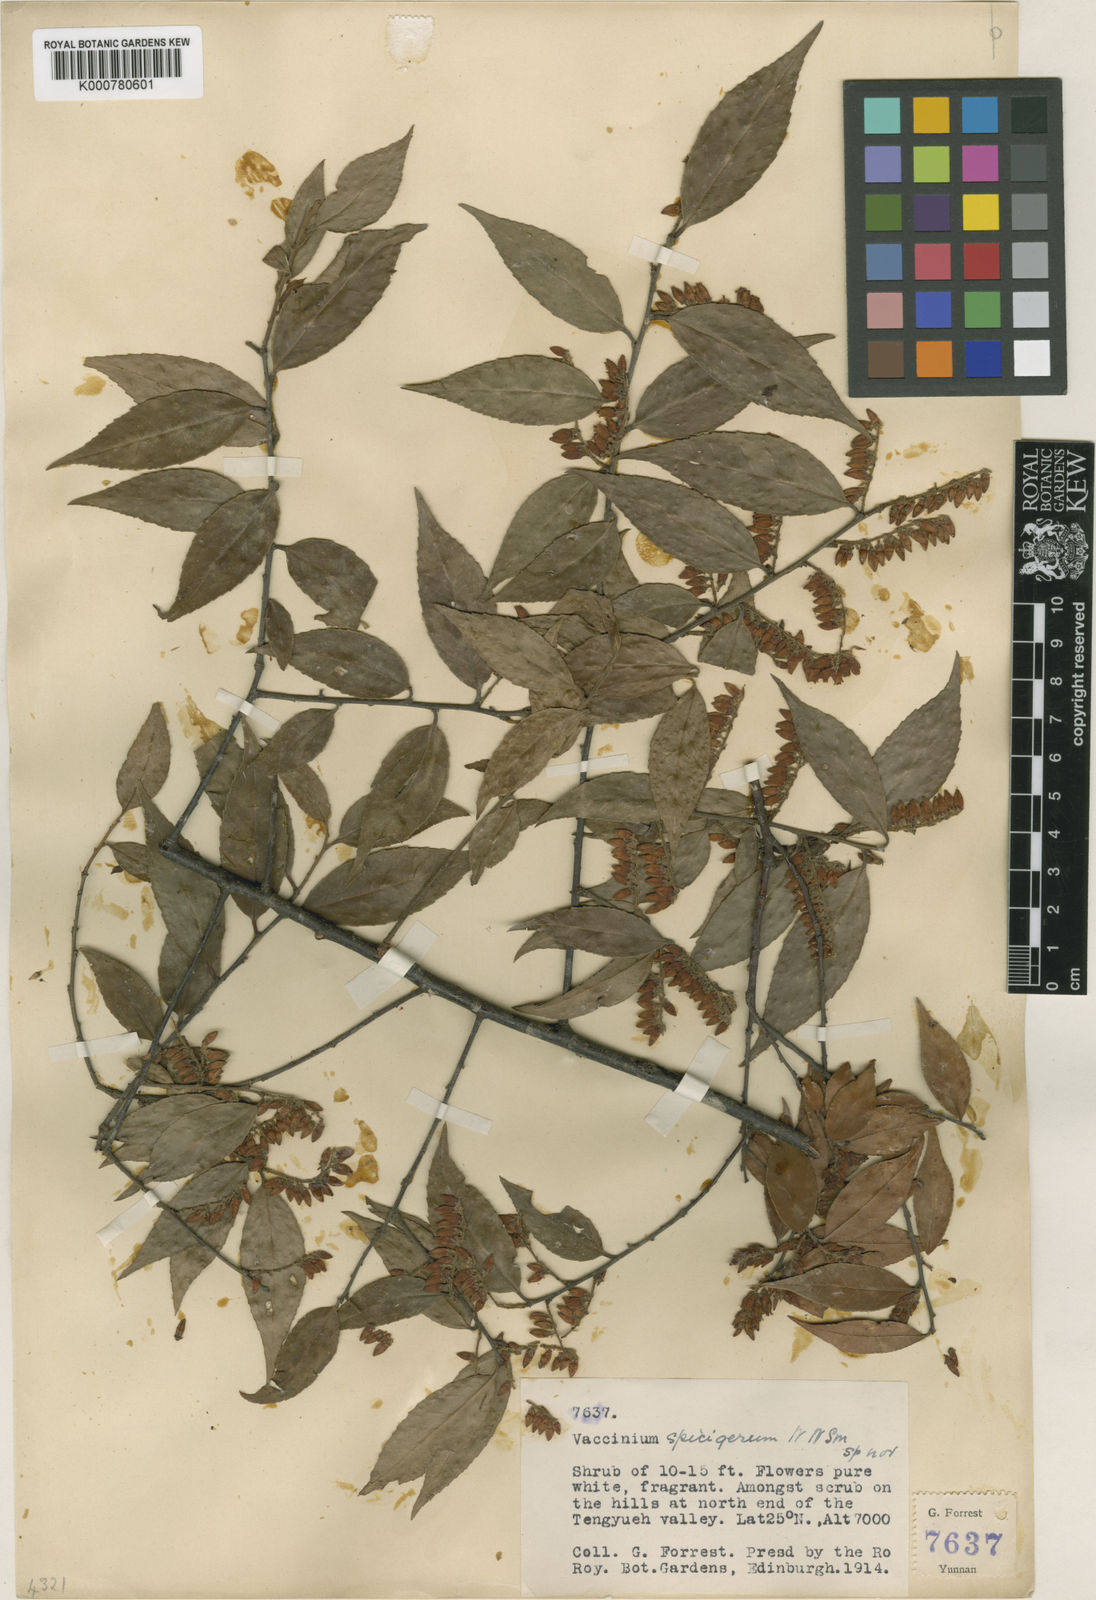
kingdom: Plantae
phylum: Tracheophyta
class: Magnoliopsida
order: Ericales
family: Ericaceae
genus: Vaccinium
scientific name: Vaccinium pubicalyx
